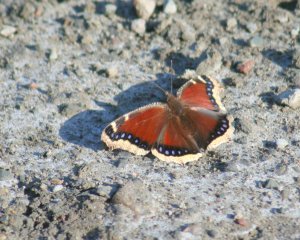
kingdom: Animalia
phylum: Arthropoda
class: Insecta
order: Lepidoptera
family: Nymphalidae
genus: Nymphalis
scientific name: Nymphalis antiopa
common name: Mourning Cloak
